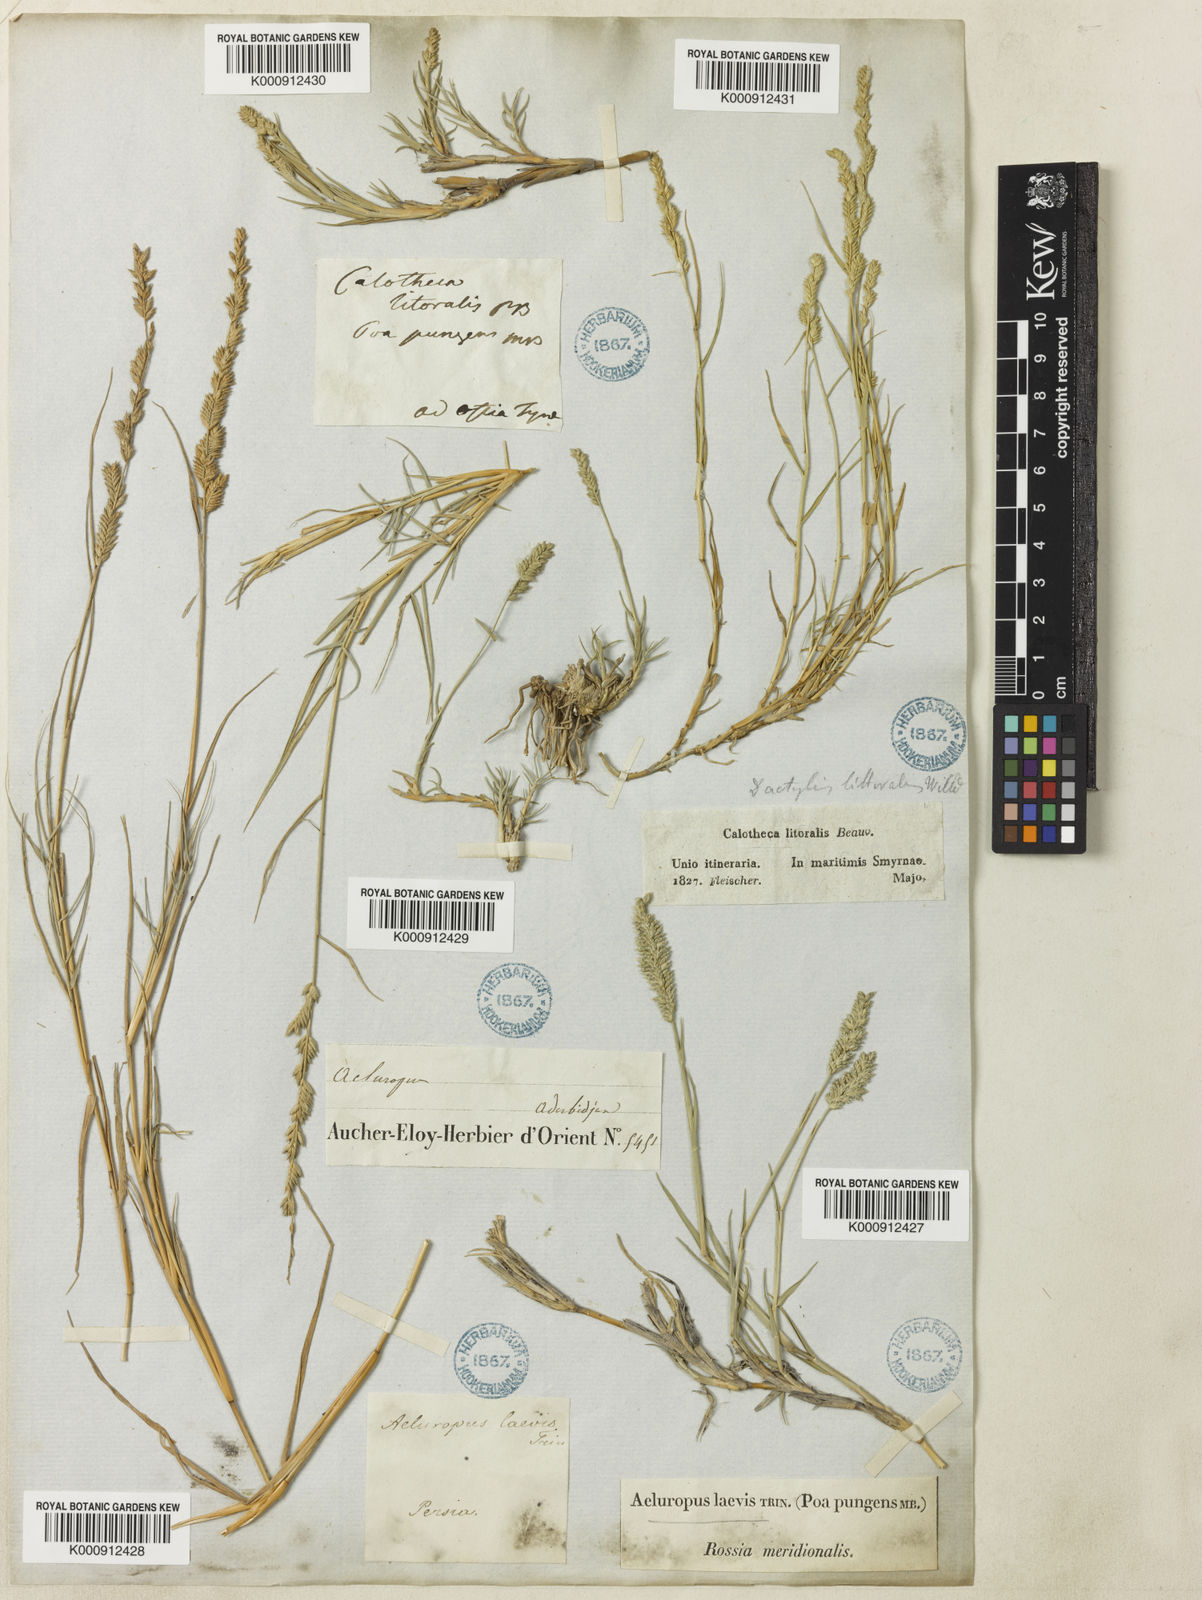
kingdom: Plantae
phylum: Tracheophyta
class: Liliopsida
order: Poales
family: Poaceae
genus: Aeluropus
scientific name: Aeluropus littoralis
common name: Indian walnut
